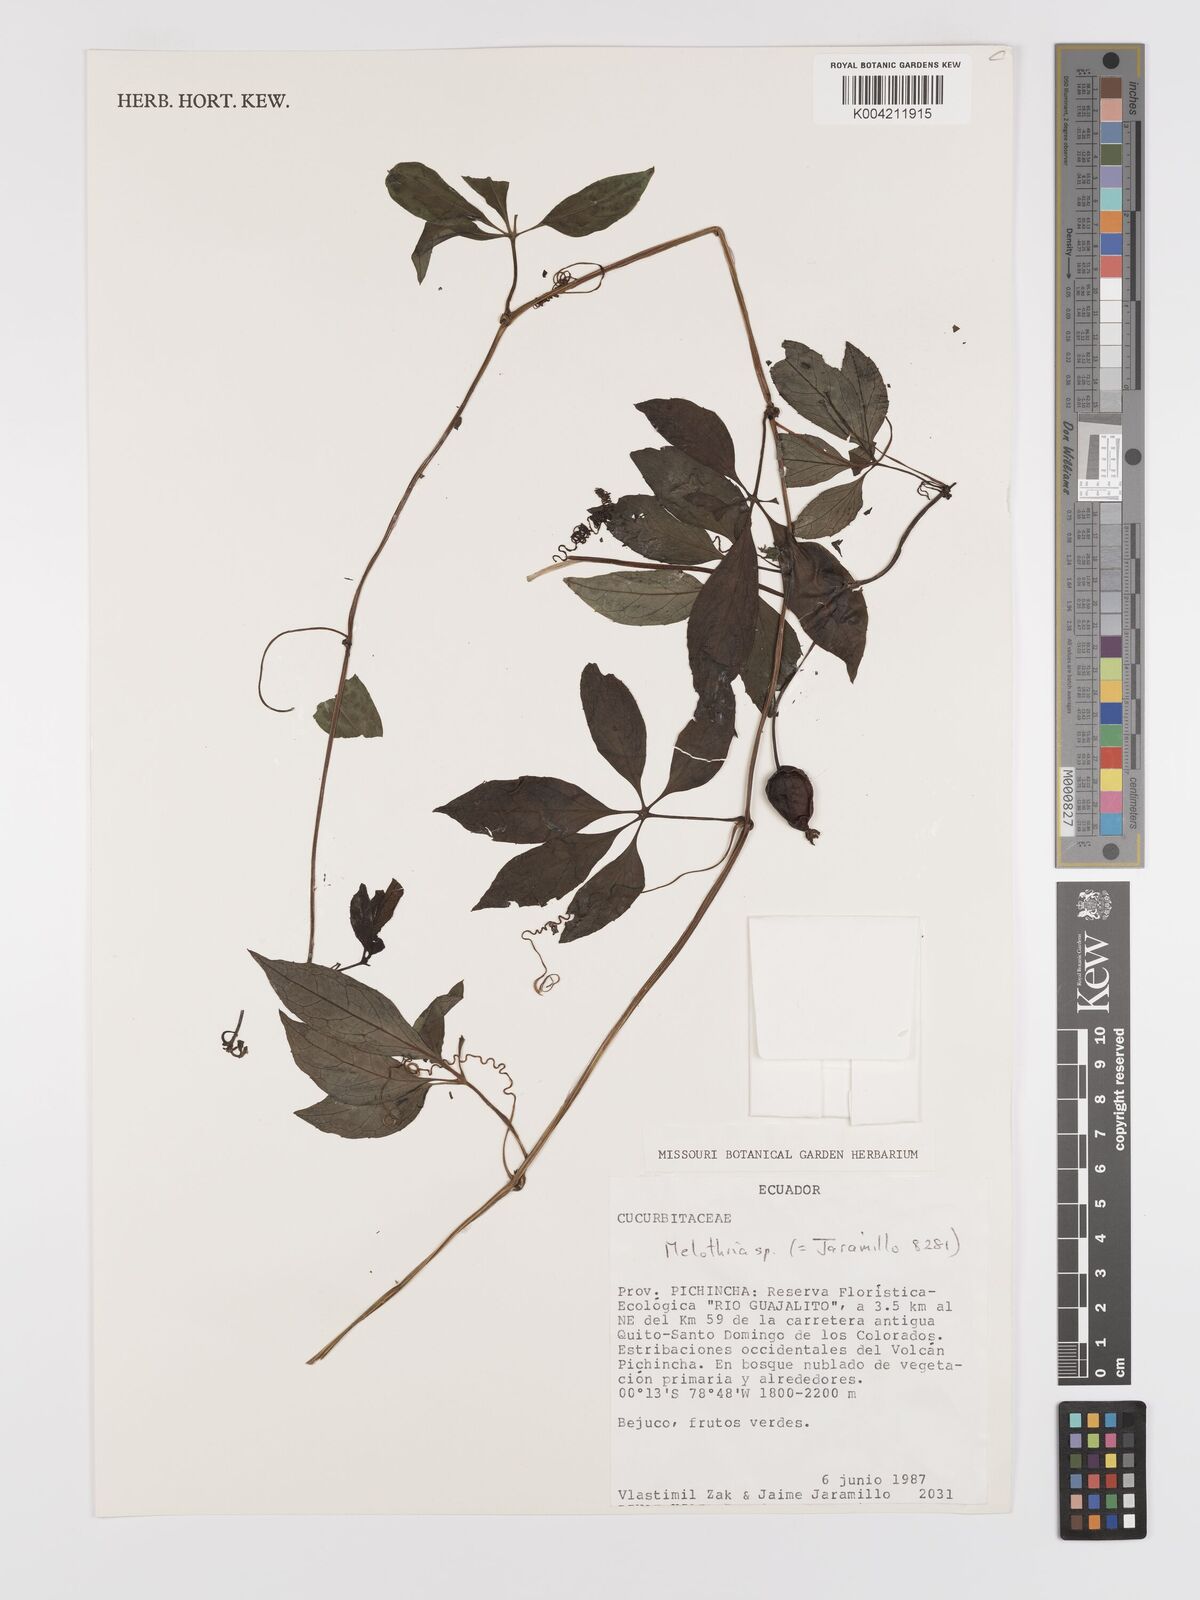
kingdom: Plantae
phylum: Tracheophyta
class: Magnoliopsida
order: Cucurbitales
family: Cucurbitaceae
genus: Melothria
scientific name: Melothria
